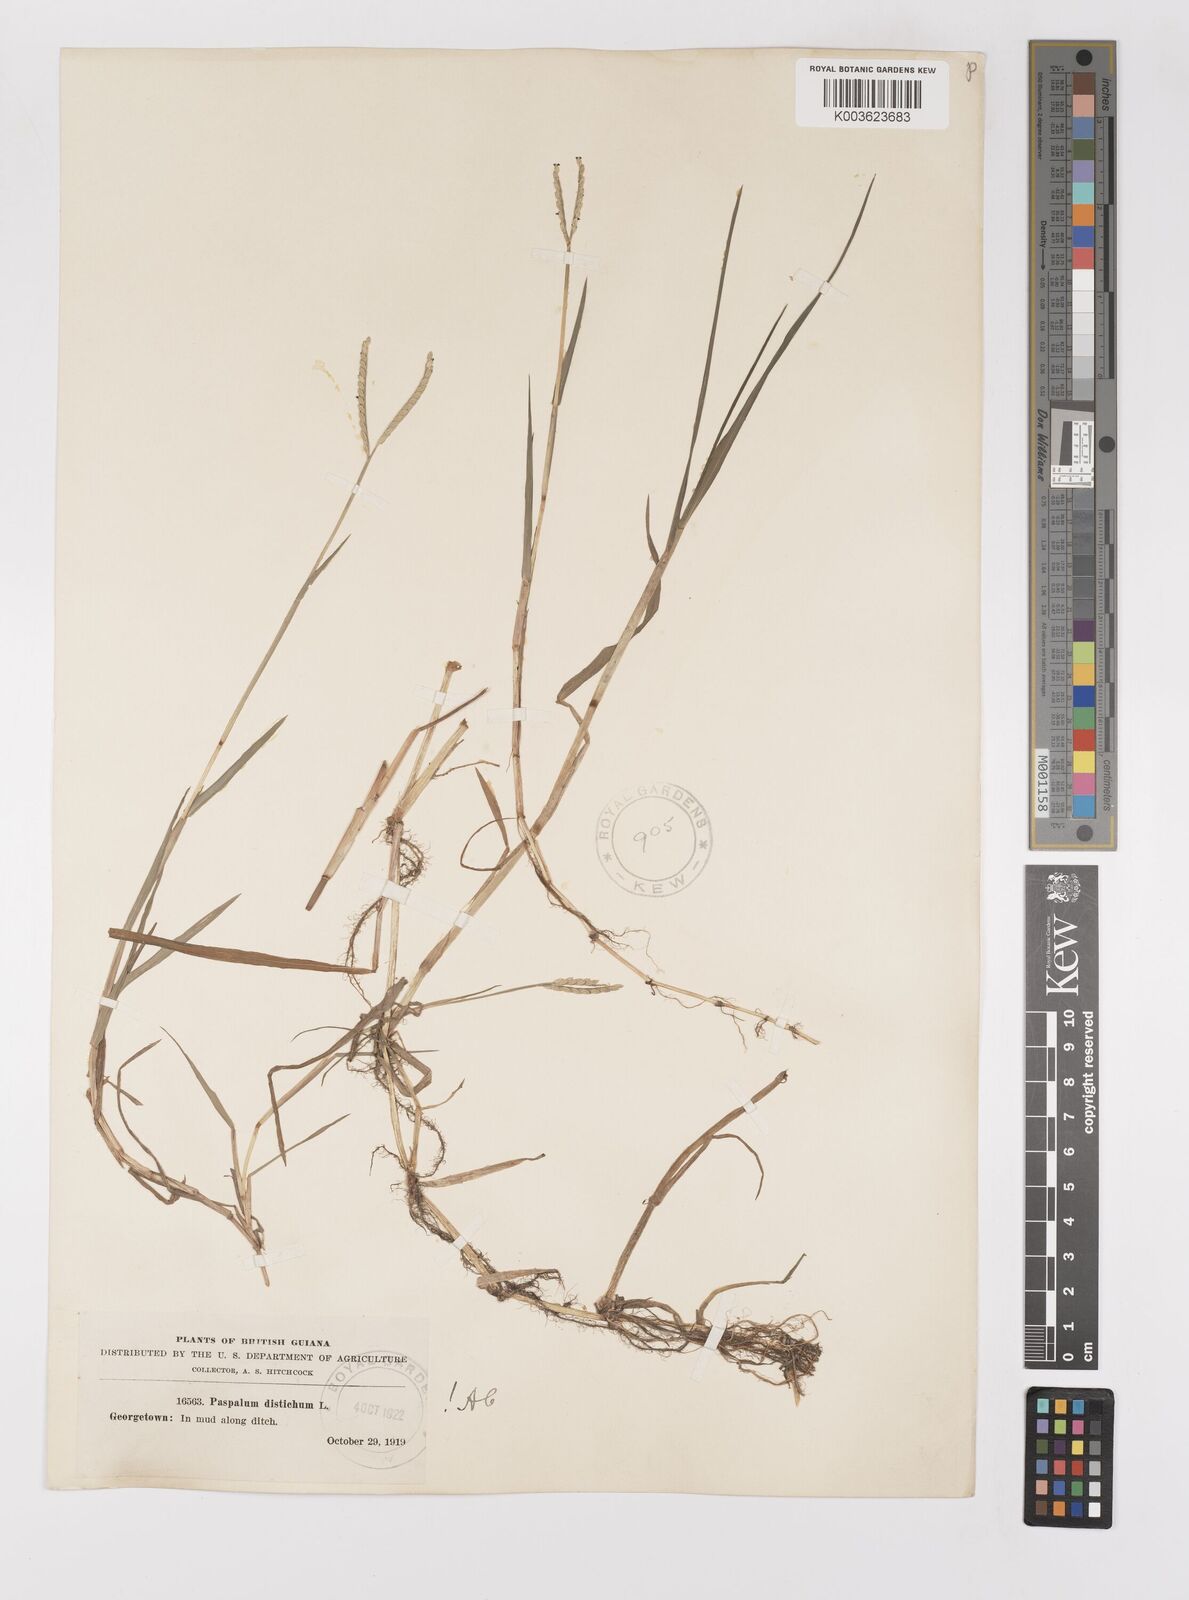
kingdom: Plantae
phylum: Tracheophyta
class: Liliopsida
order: Poales
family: Poaceae
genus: Paspalum
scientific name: Paspalum distichum
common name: Knotgrass
